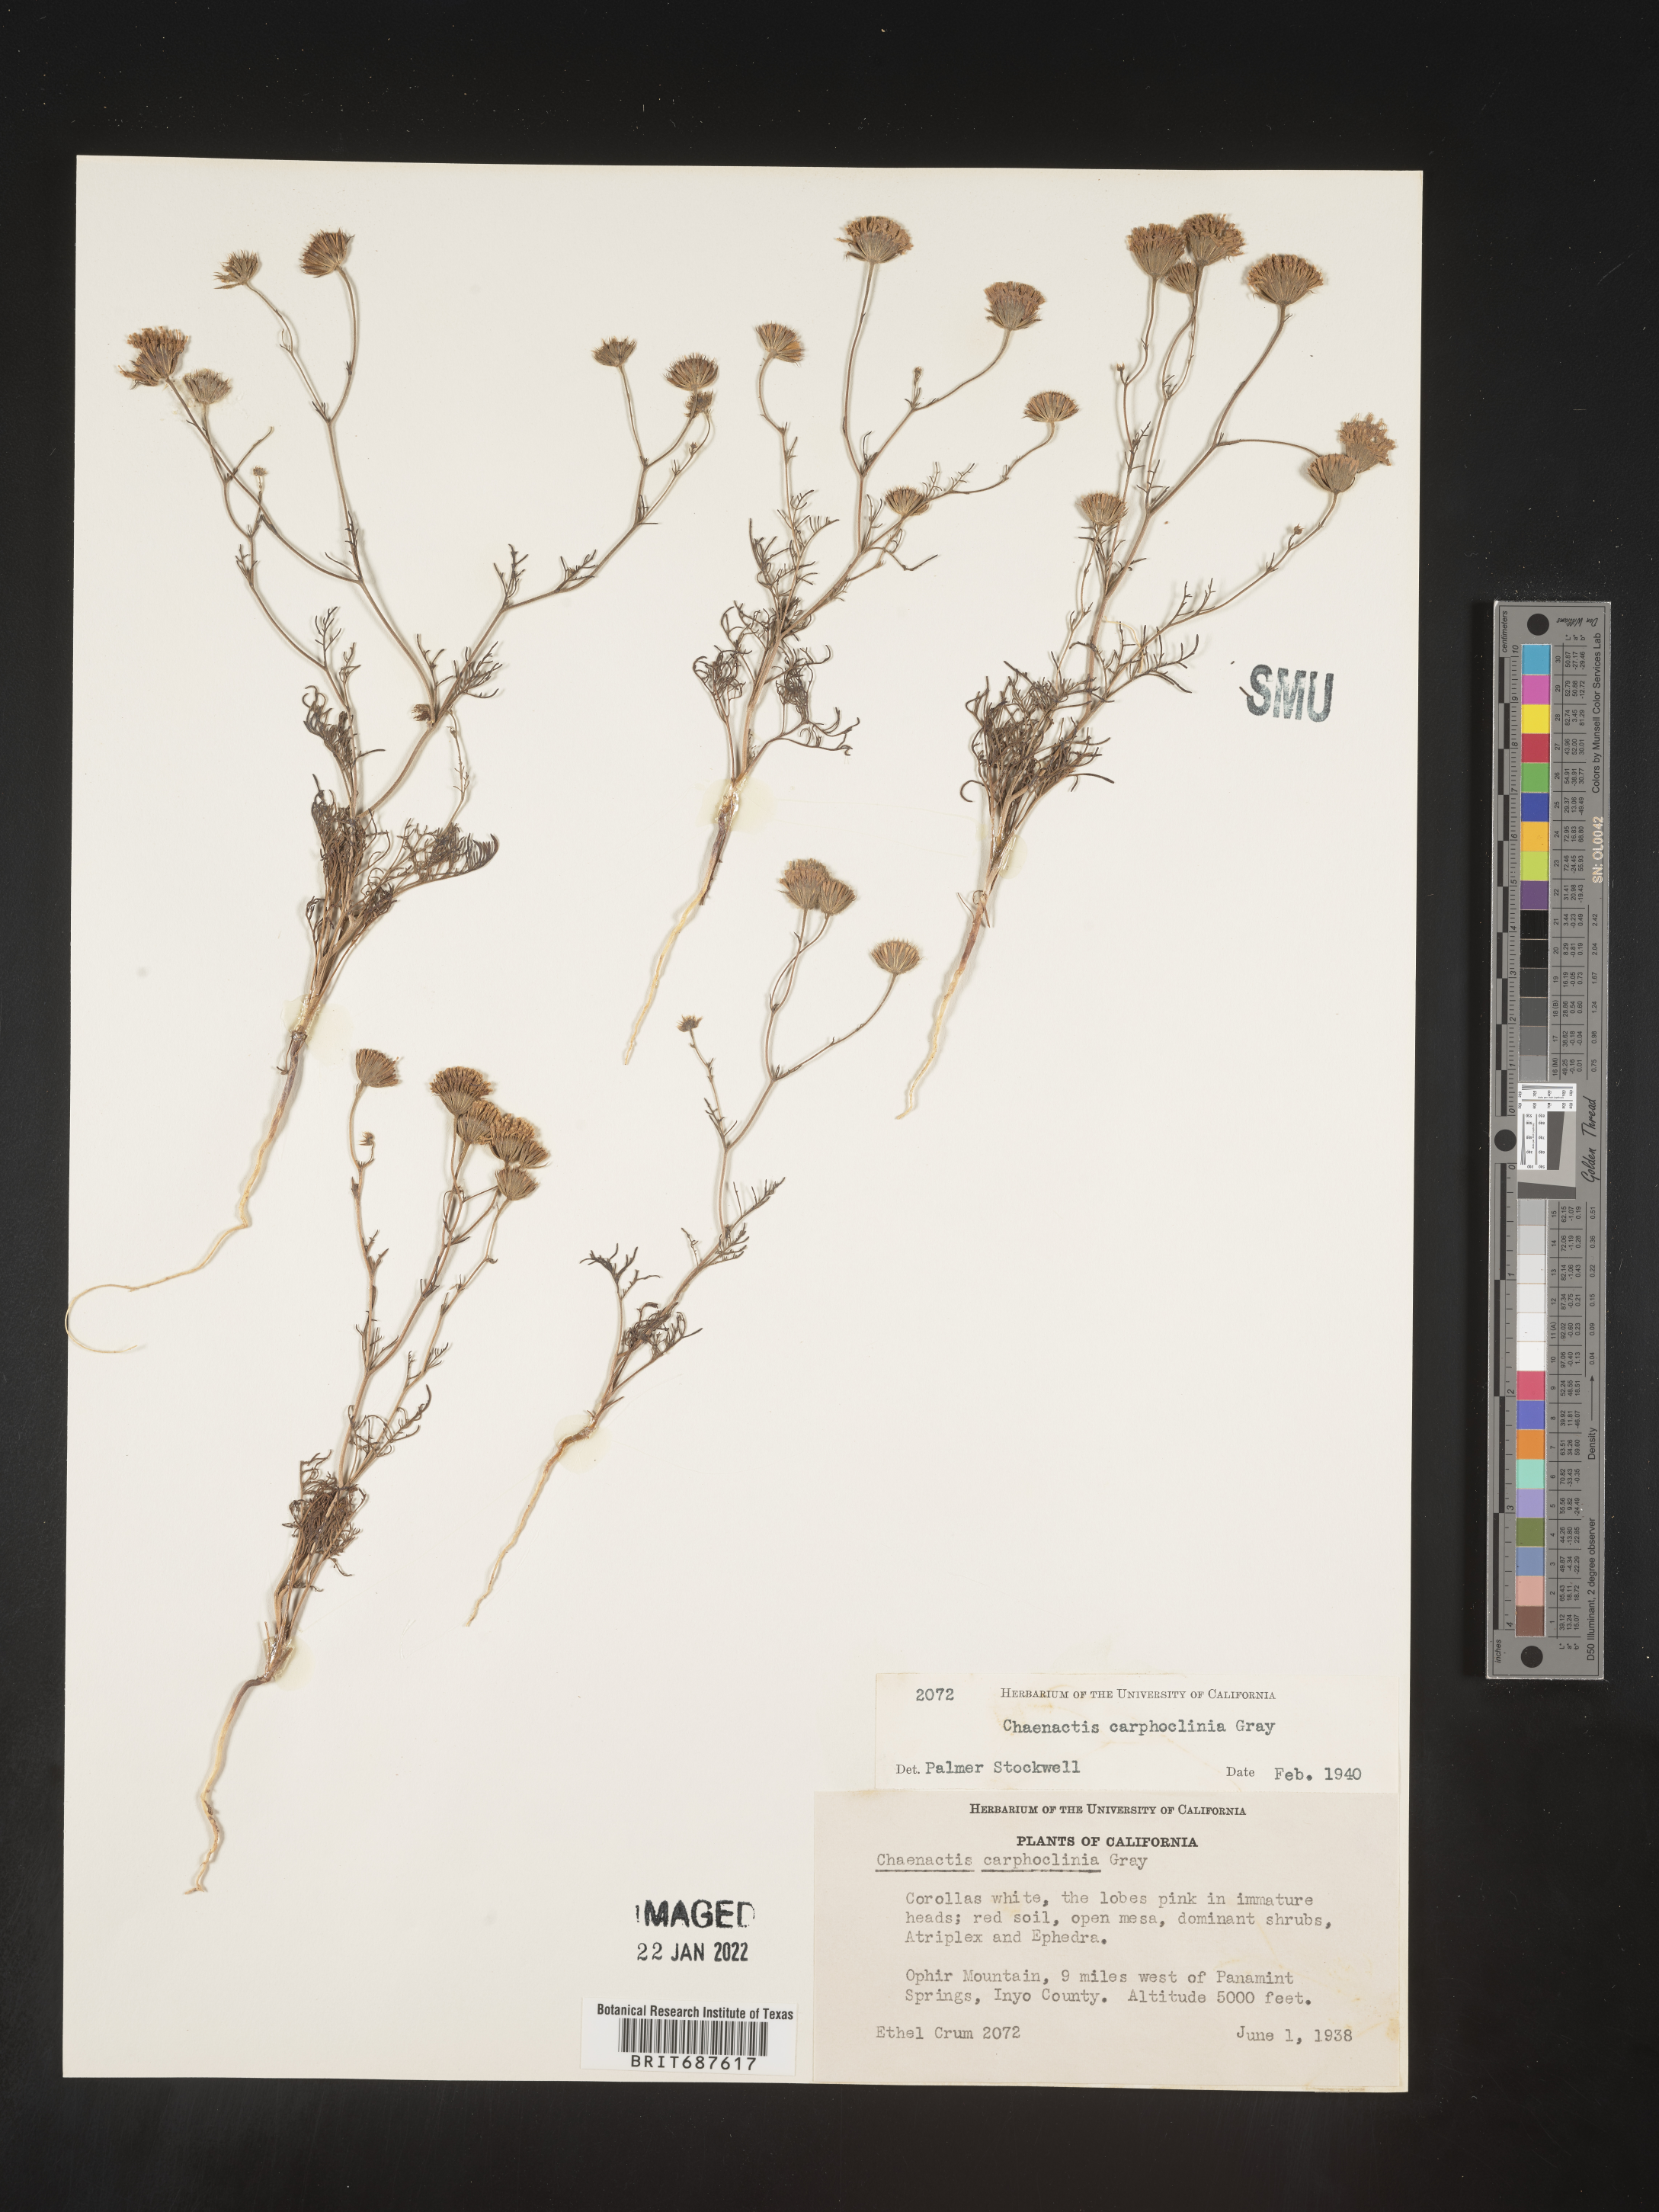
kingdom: Plantae
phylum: Tracheophyta
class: Magnoliopsida
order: Asterales
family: Asteraceae
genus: Chaenactis
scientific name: Chaenactis carphoclinia
